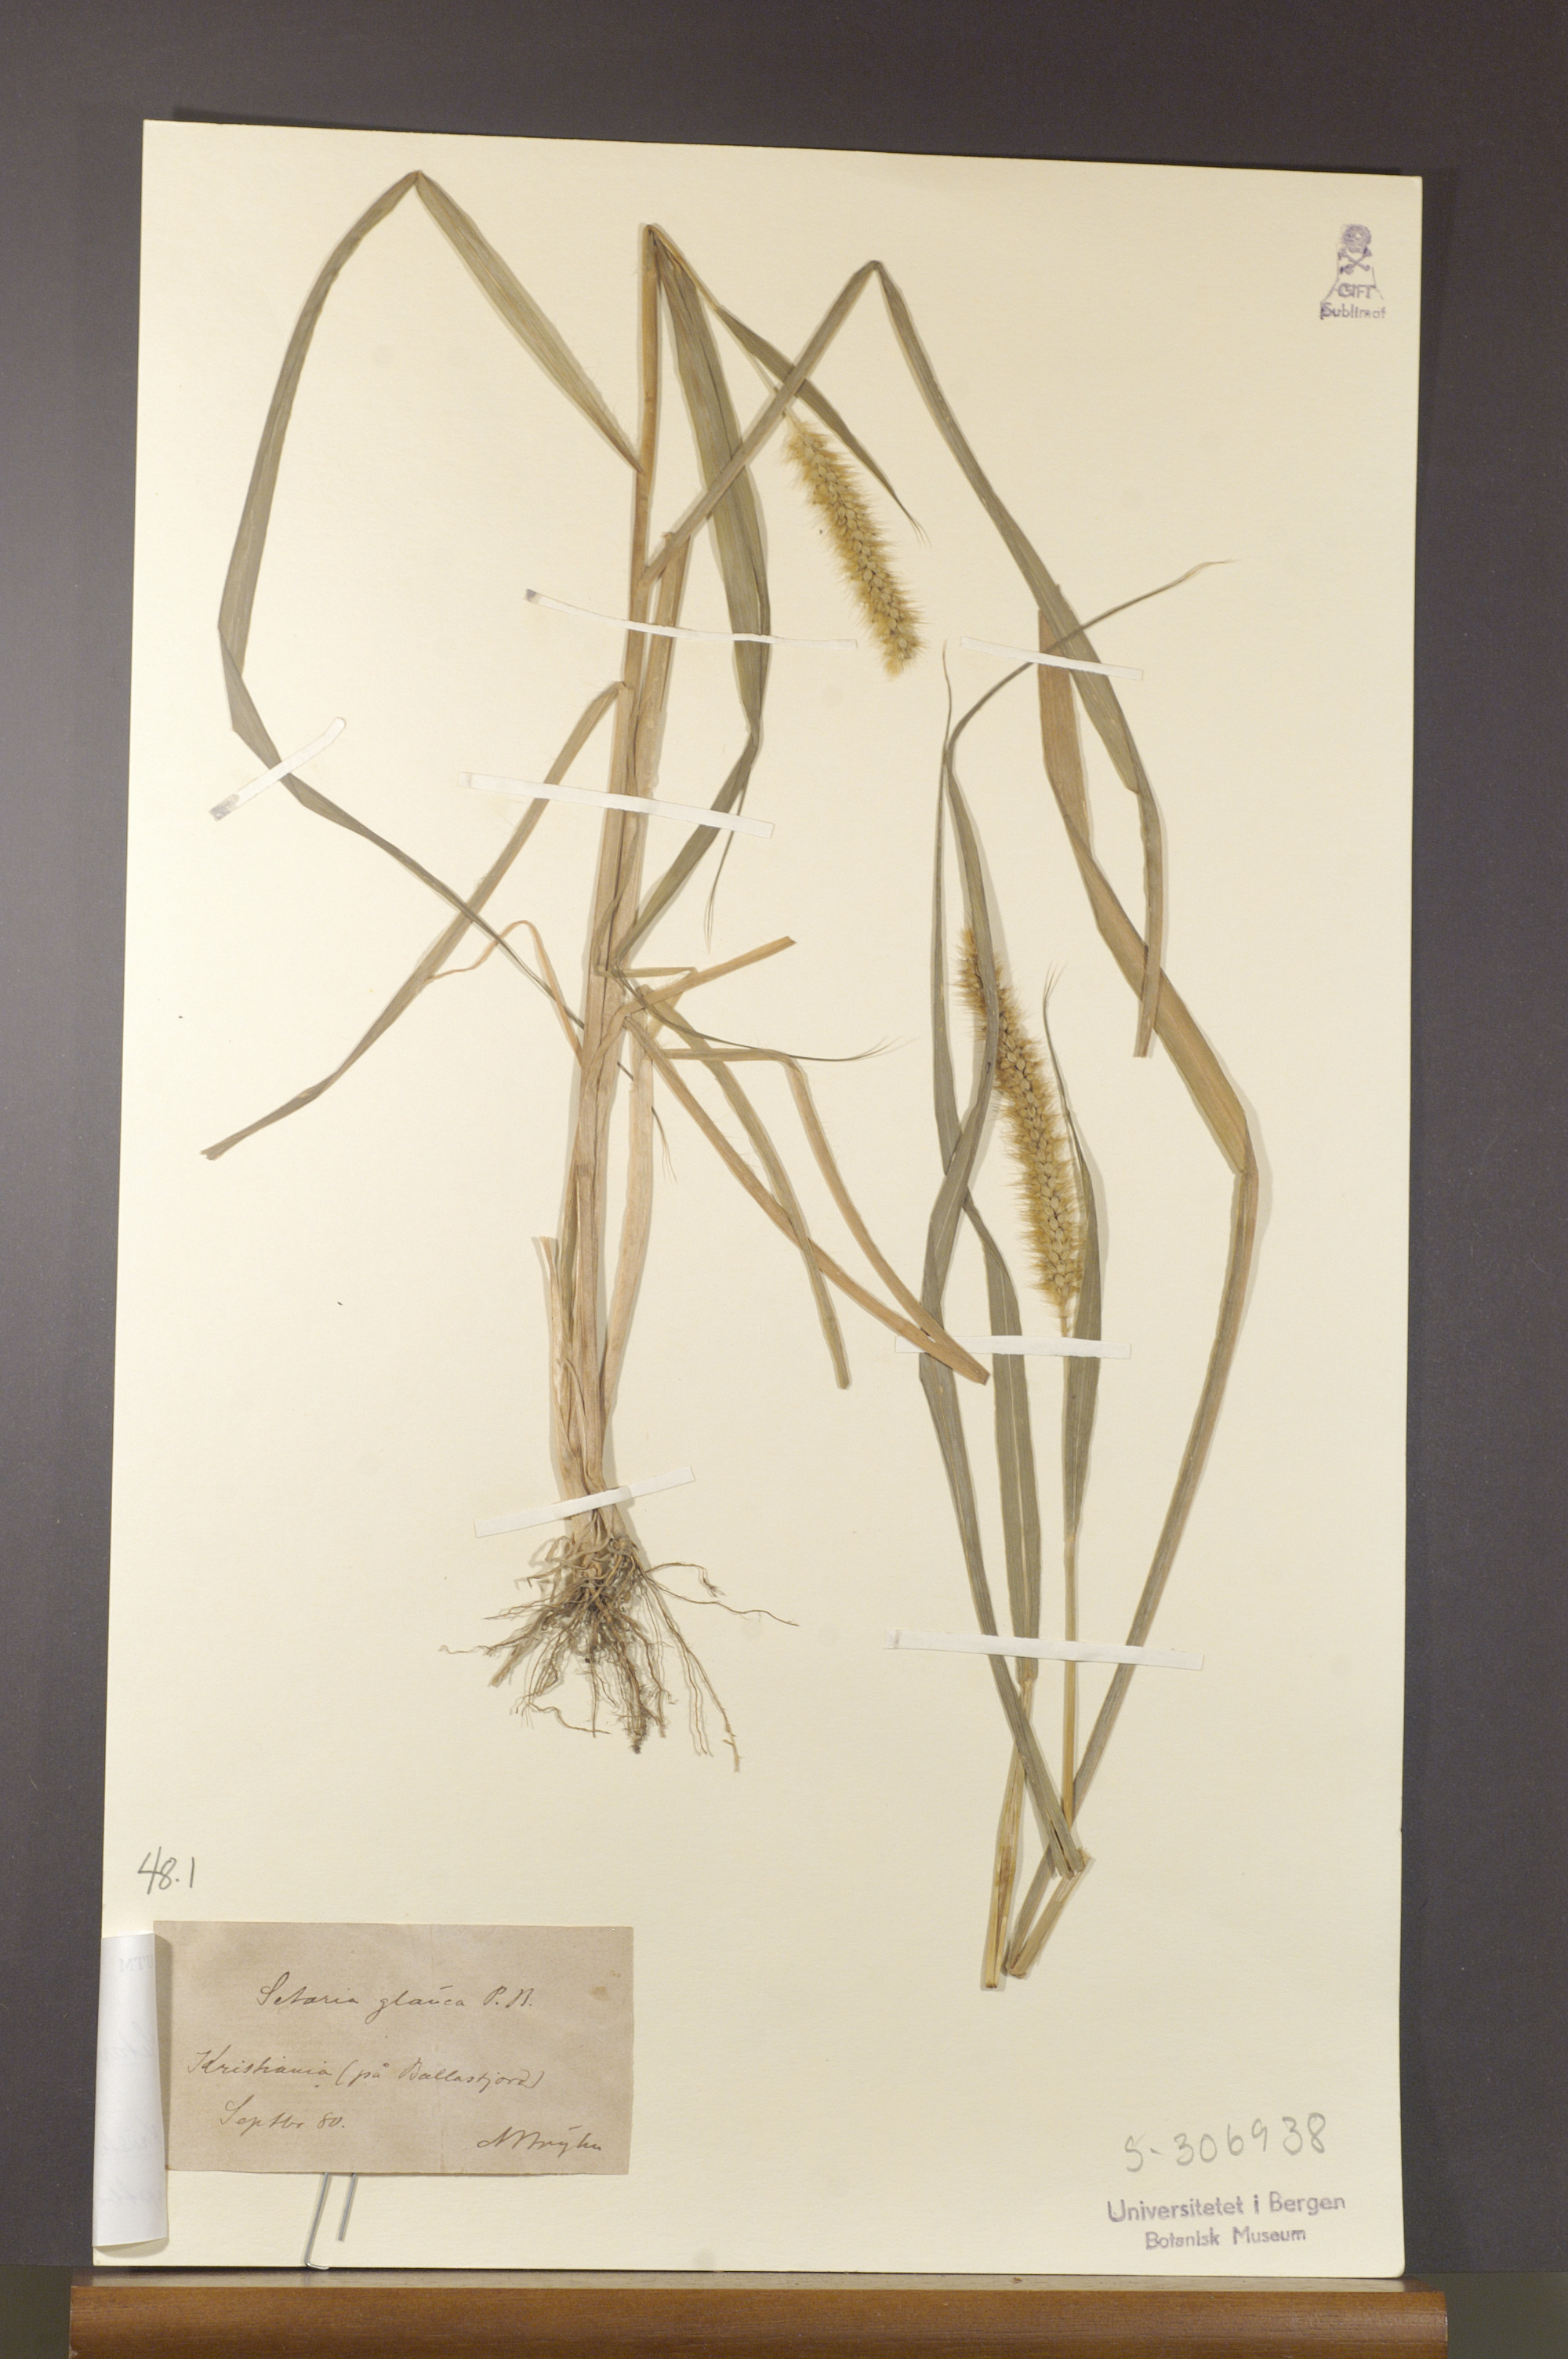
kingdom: Plantae
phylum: Tracheophyta
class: Liliopsida
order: Poales
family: Poaceae
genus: Setaria
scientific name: Setaria pumila
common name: Yellow bristle-grass
